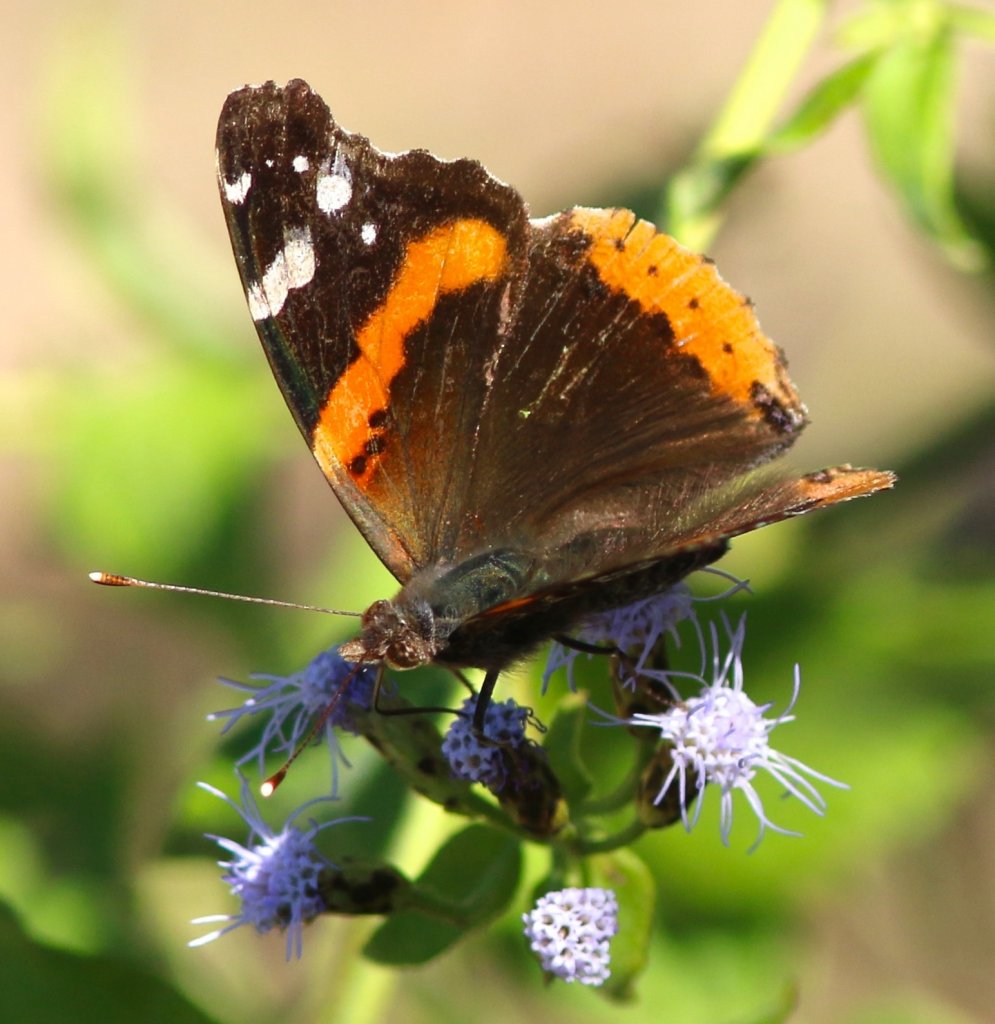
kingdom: Animalia
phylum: Arthropoda
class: Insecta
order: Lepidoptera
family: Nymphalidae
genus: Vanessa
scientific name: Vanessa atalanta
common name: Red Admiral
